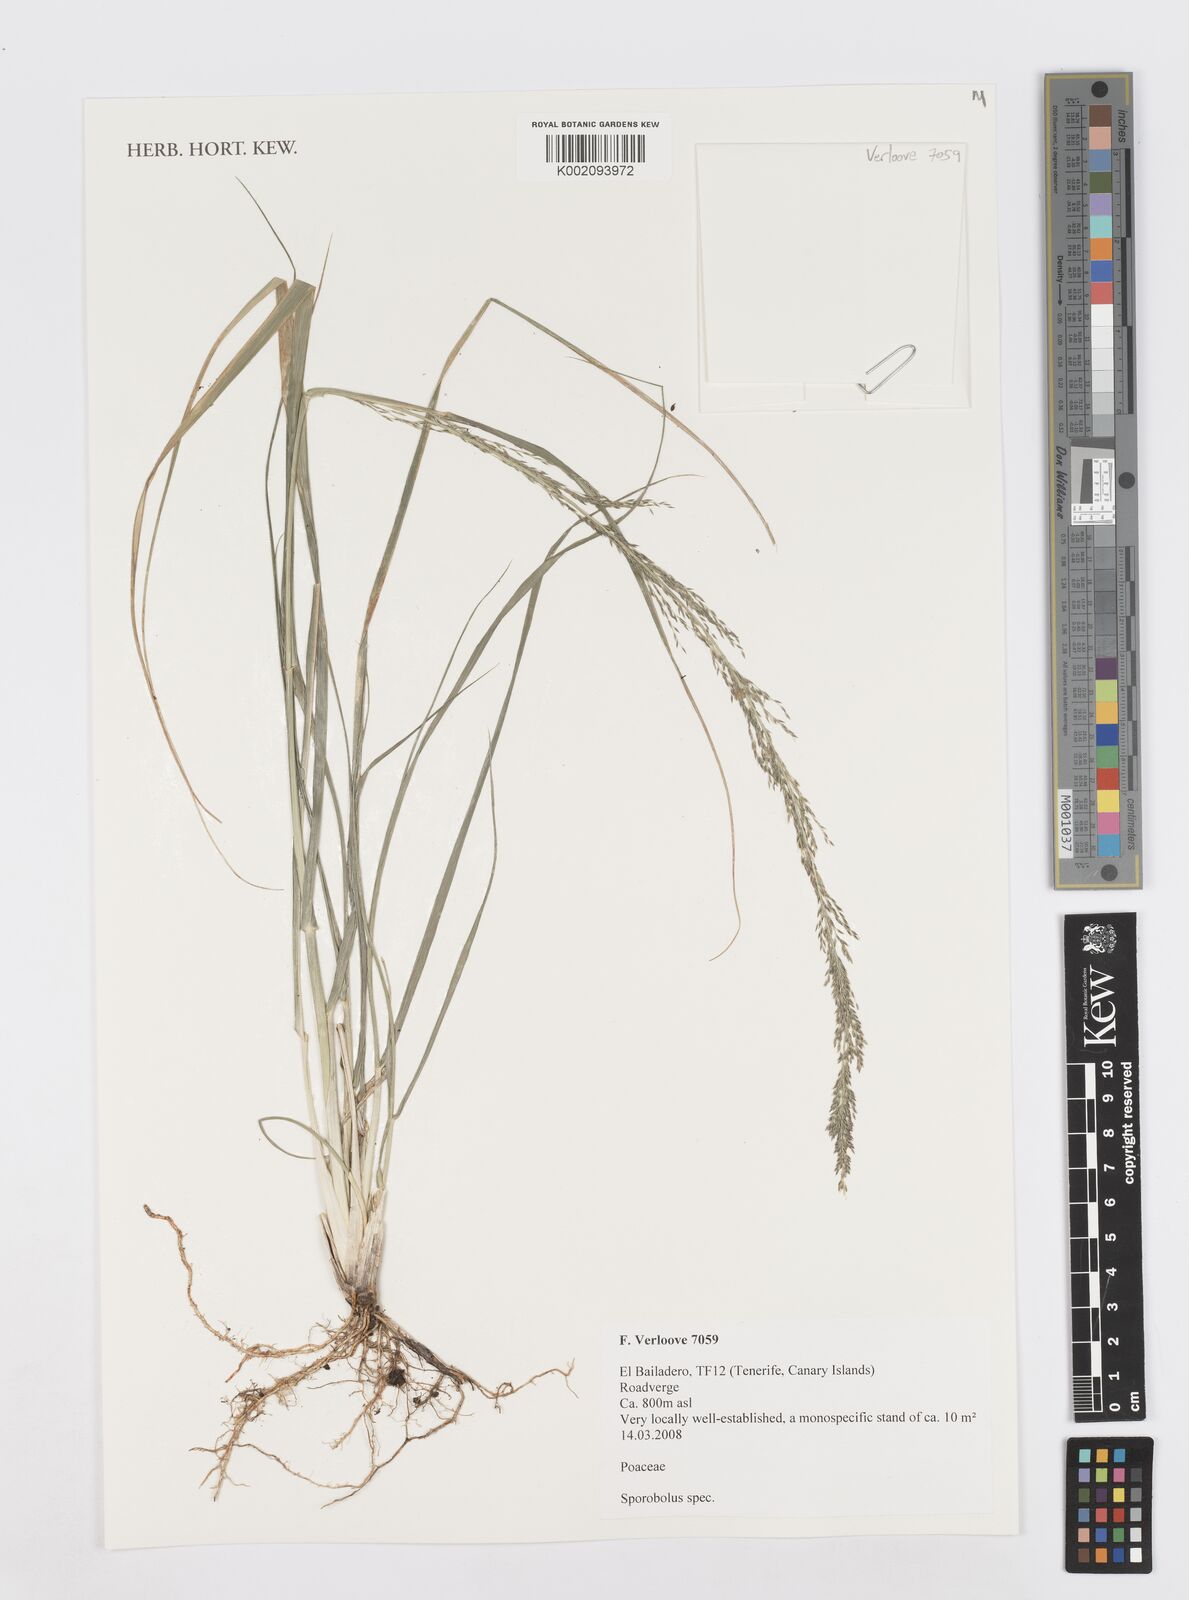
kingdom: Plantae
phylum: Tracheophyta
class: Liliopsida
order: Poales
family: Poaceae
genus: Sporobolus
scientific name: Sporobolus
